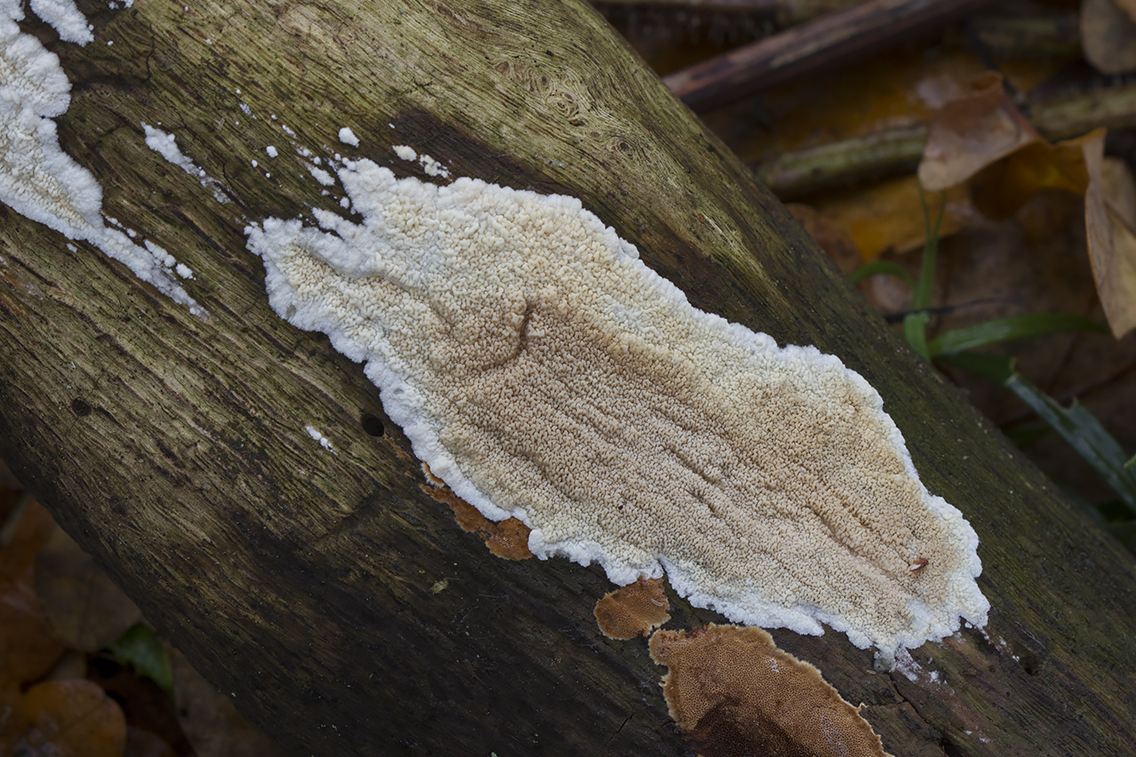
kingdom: Fungi
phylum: Basidiomycota
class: Agaricomycetes
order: Polyporales
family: Irpicaceae
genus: Crystallicutis
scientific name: Crystallicutis serpens
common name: gråviolet barkhinde
